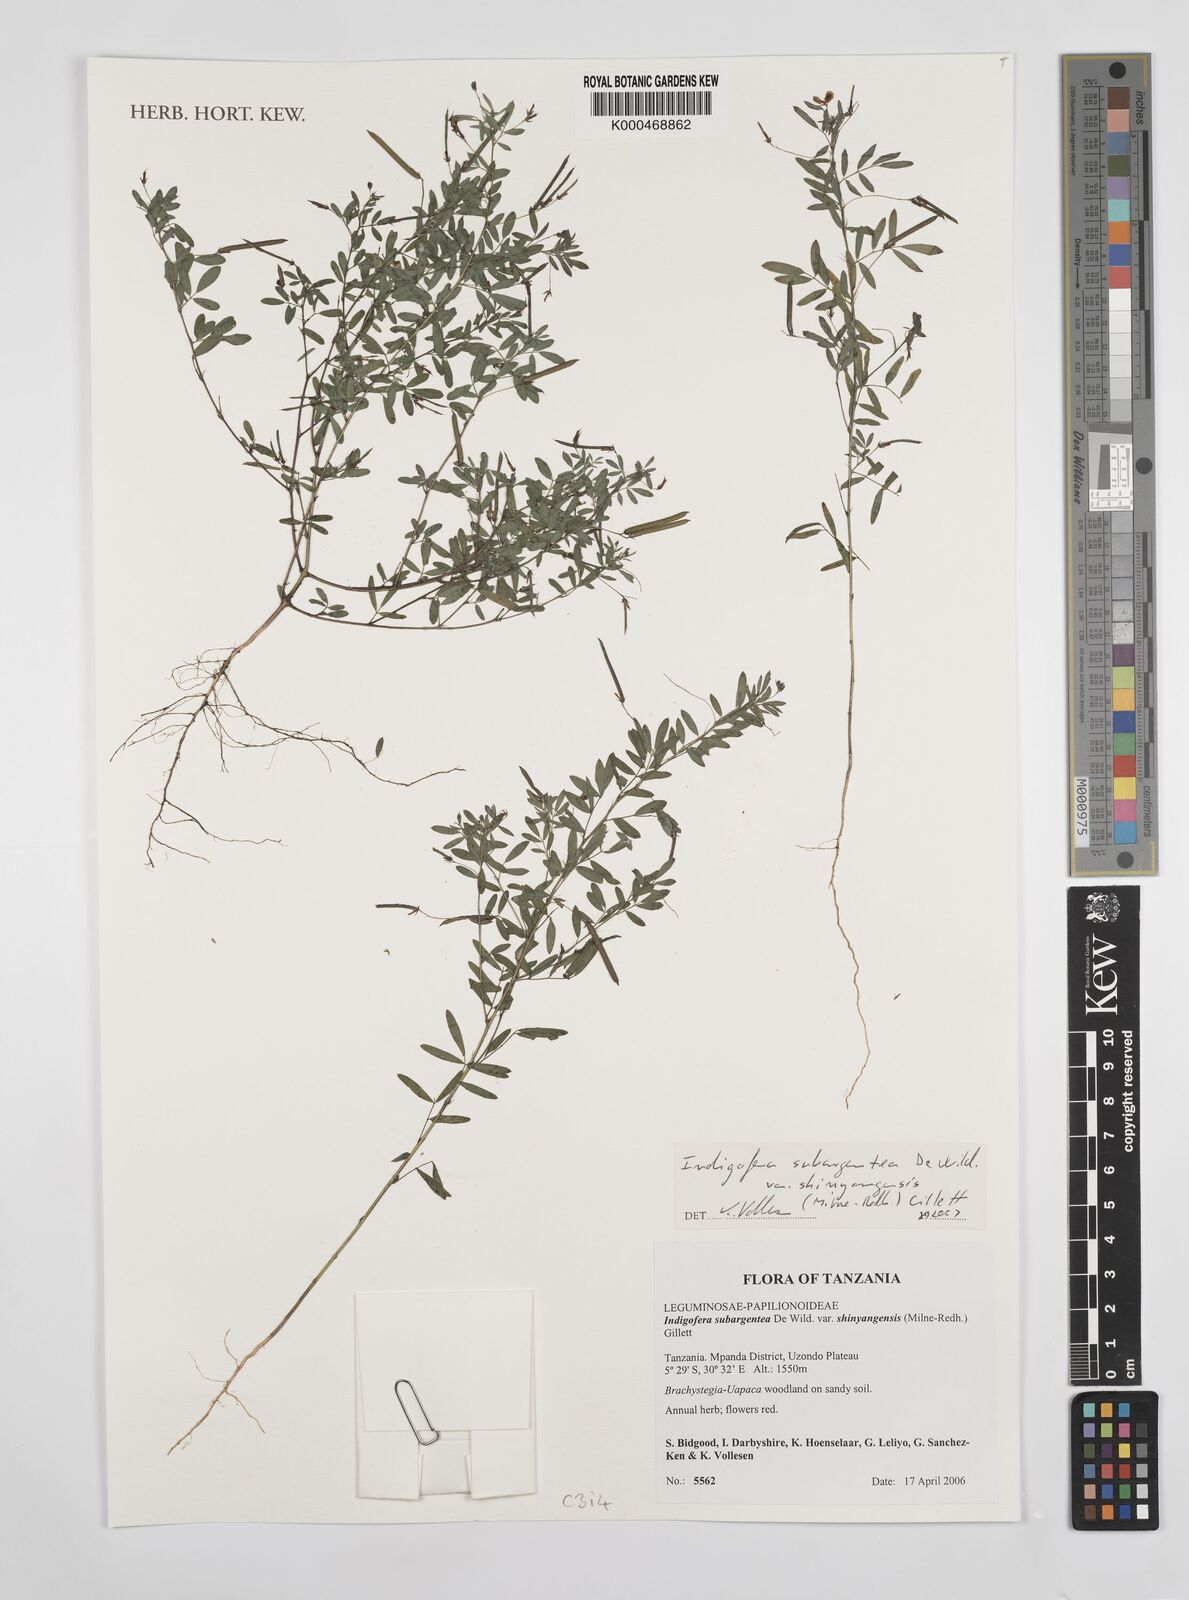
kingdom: Plantae
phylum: Tracheophyta
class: Magnoliopsida
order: Fabales
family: Fabaceae
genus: Indigofera
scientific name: Indigofera subargentea
